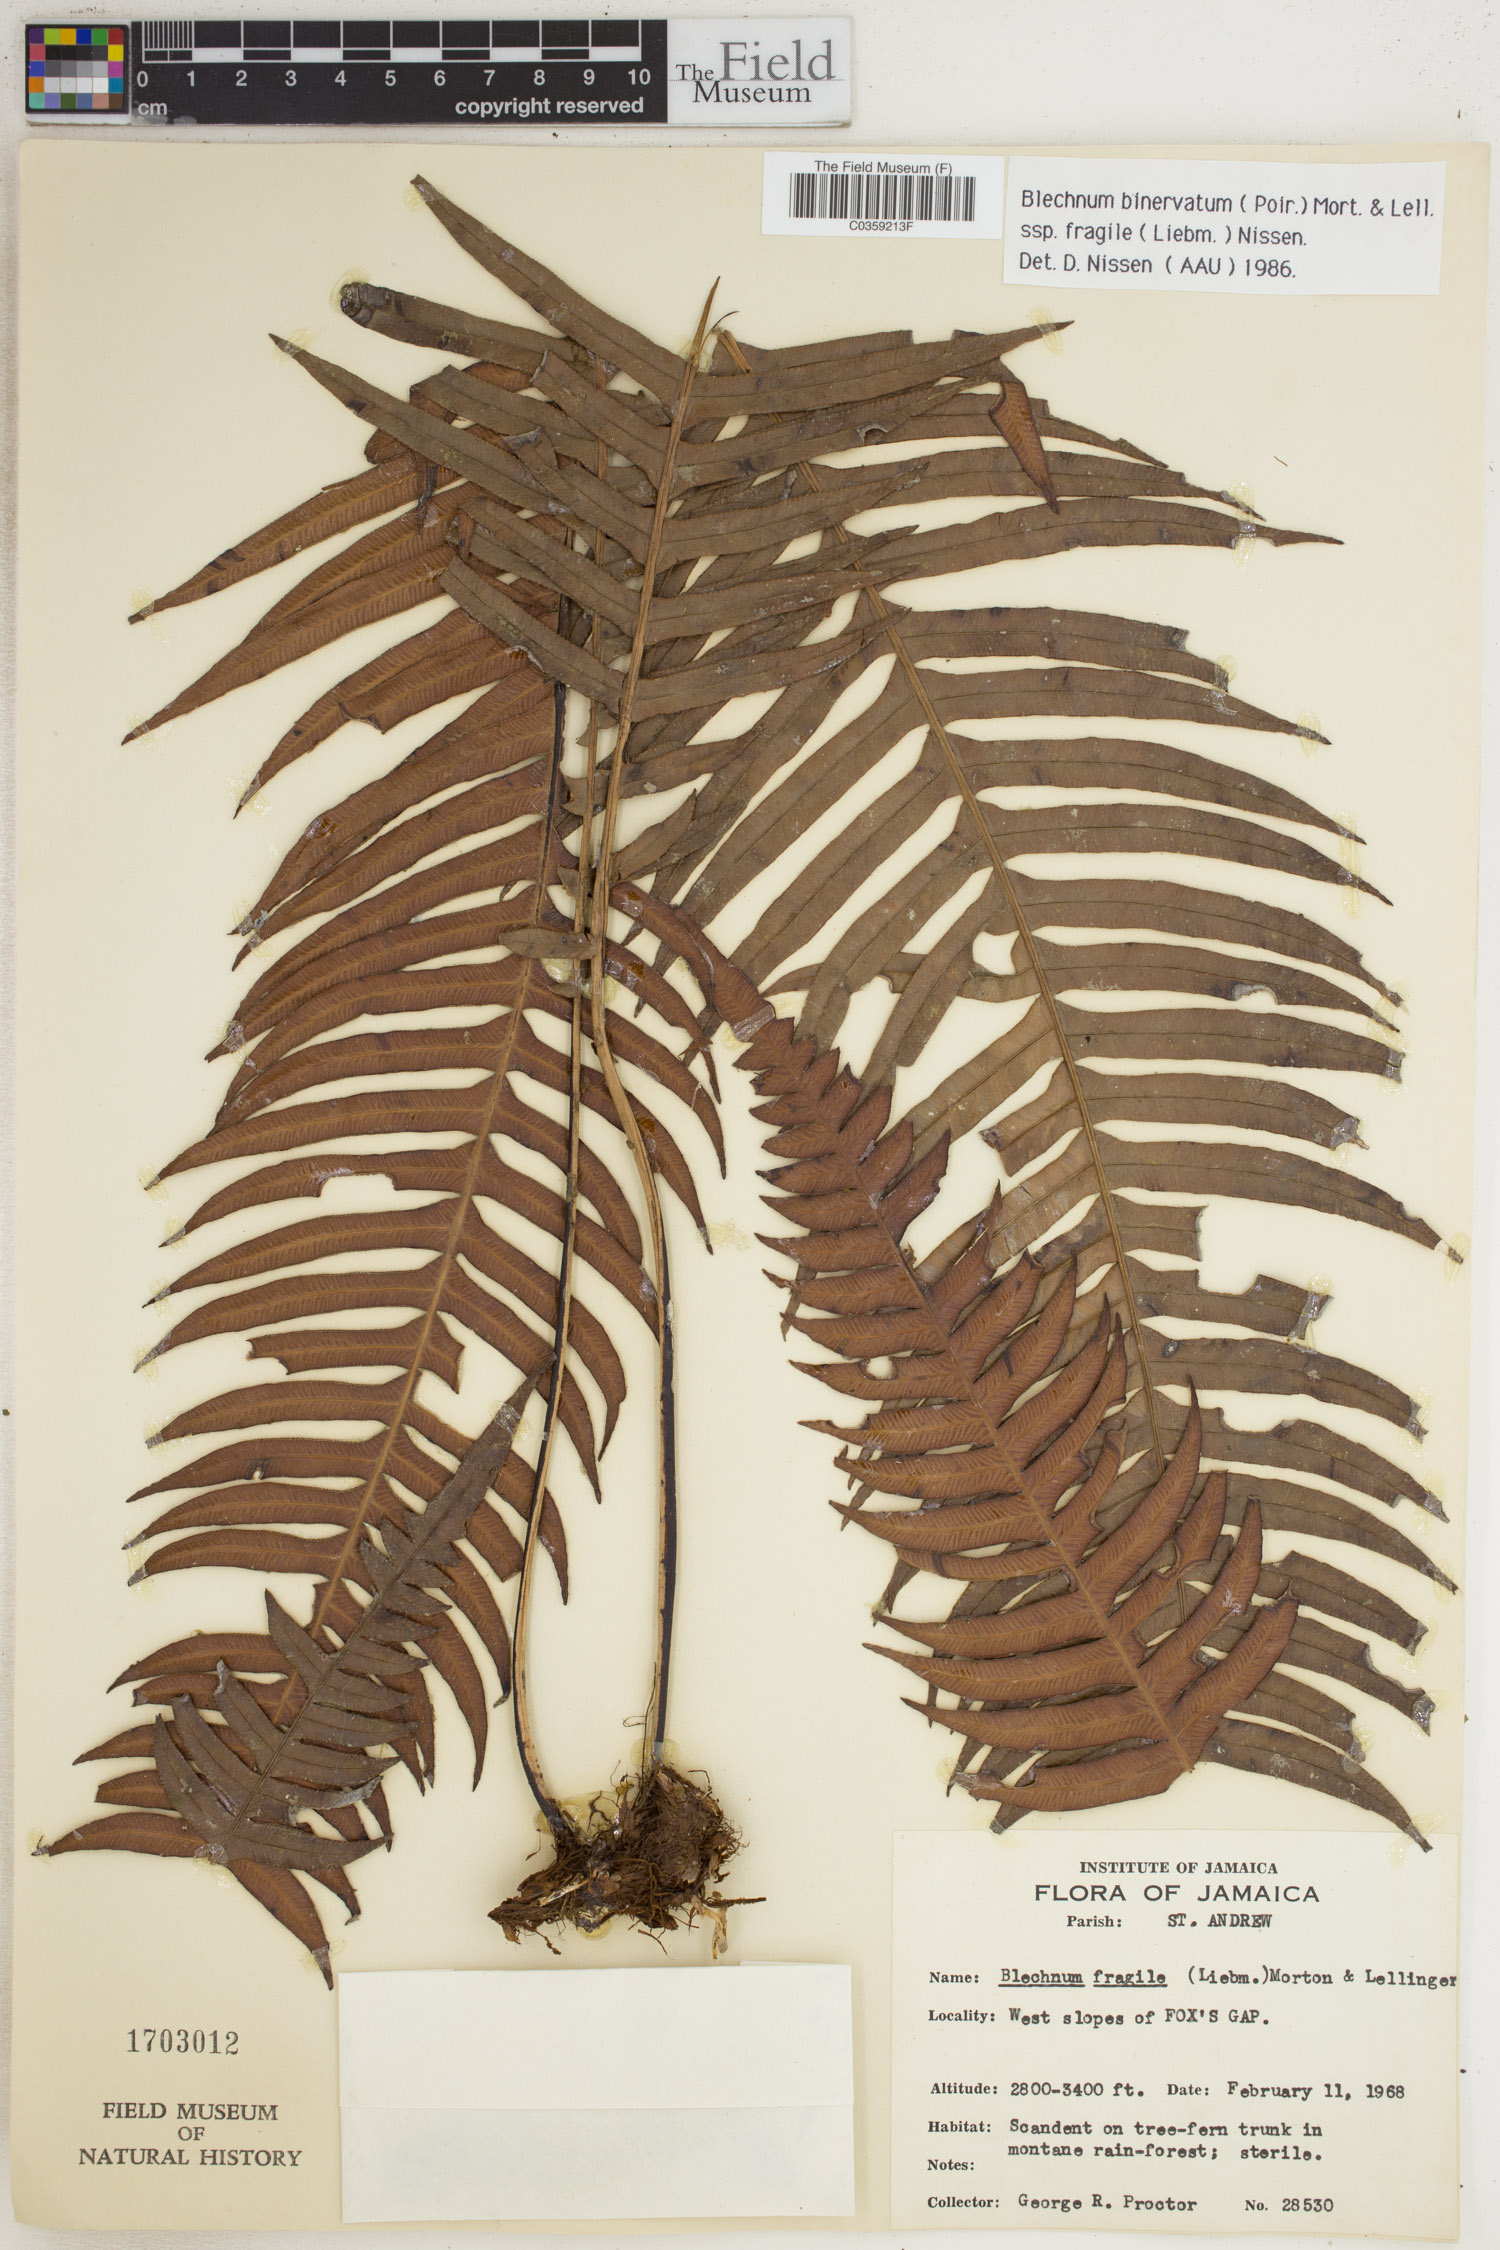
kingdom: Plantae
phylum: Tracheophyta
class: Polypodiopsida
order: Polypodiales
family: Blechnaceae
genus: Lomaridium
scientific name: Lomaridium binervatum
